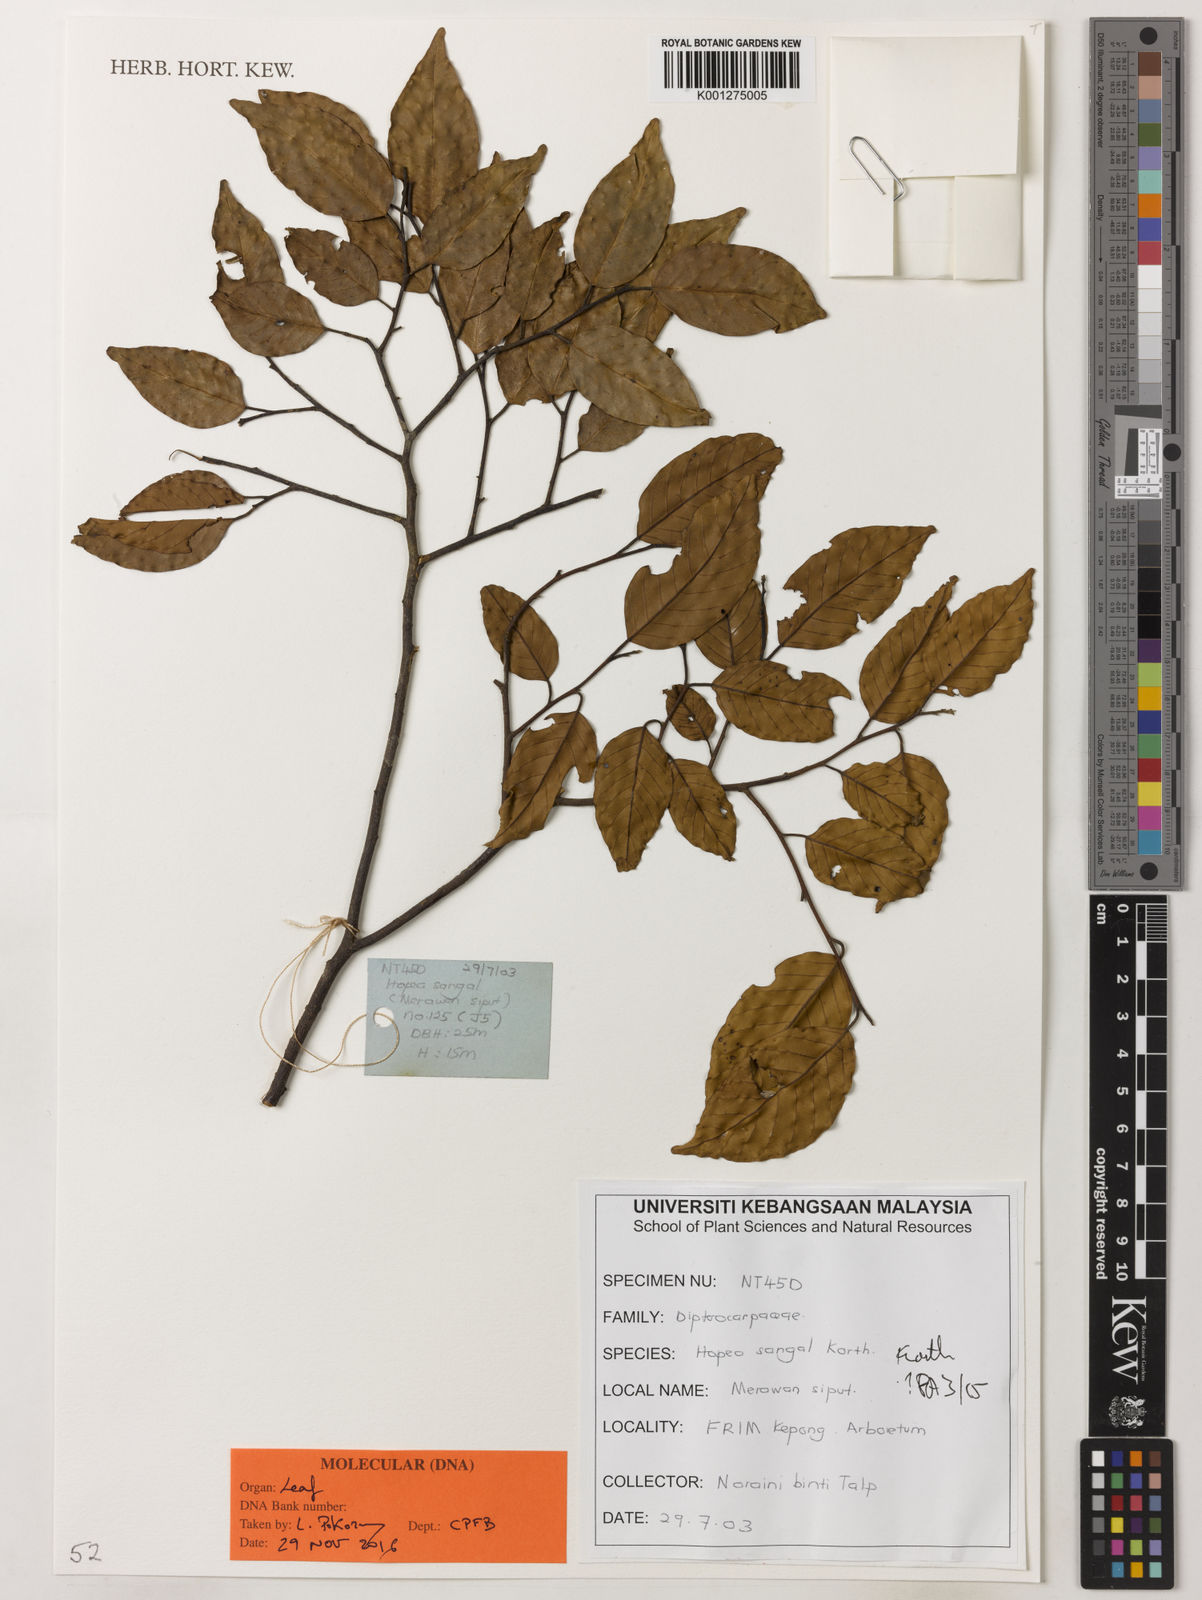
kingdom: Plantae
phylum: Tracheophyta
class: Magnoliopsida
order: Malvales
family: Dipterocarpaceae
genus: Hopea
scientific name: Hopea sangal
